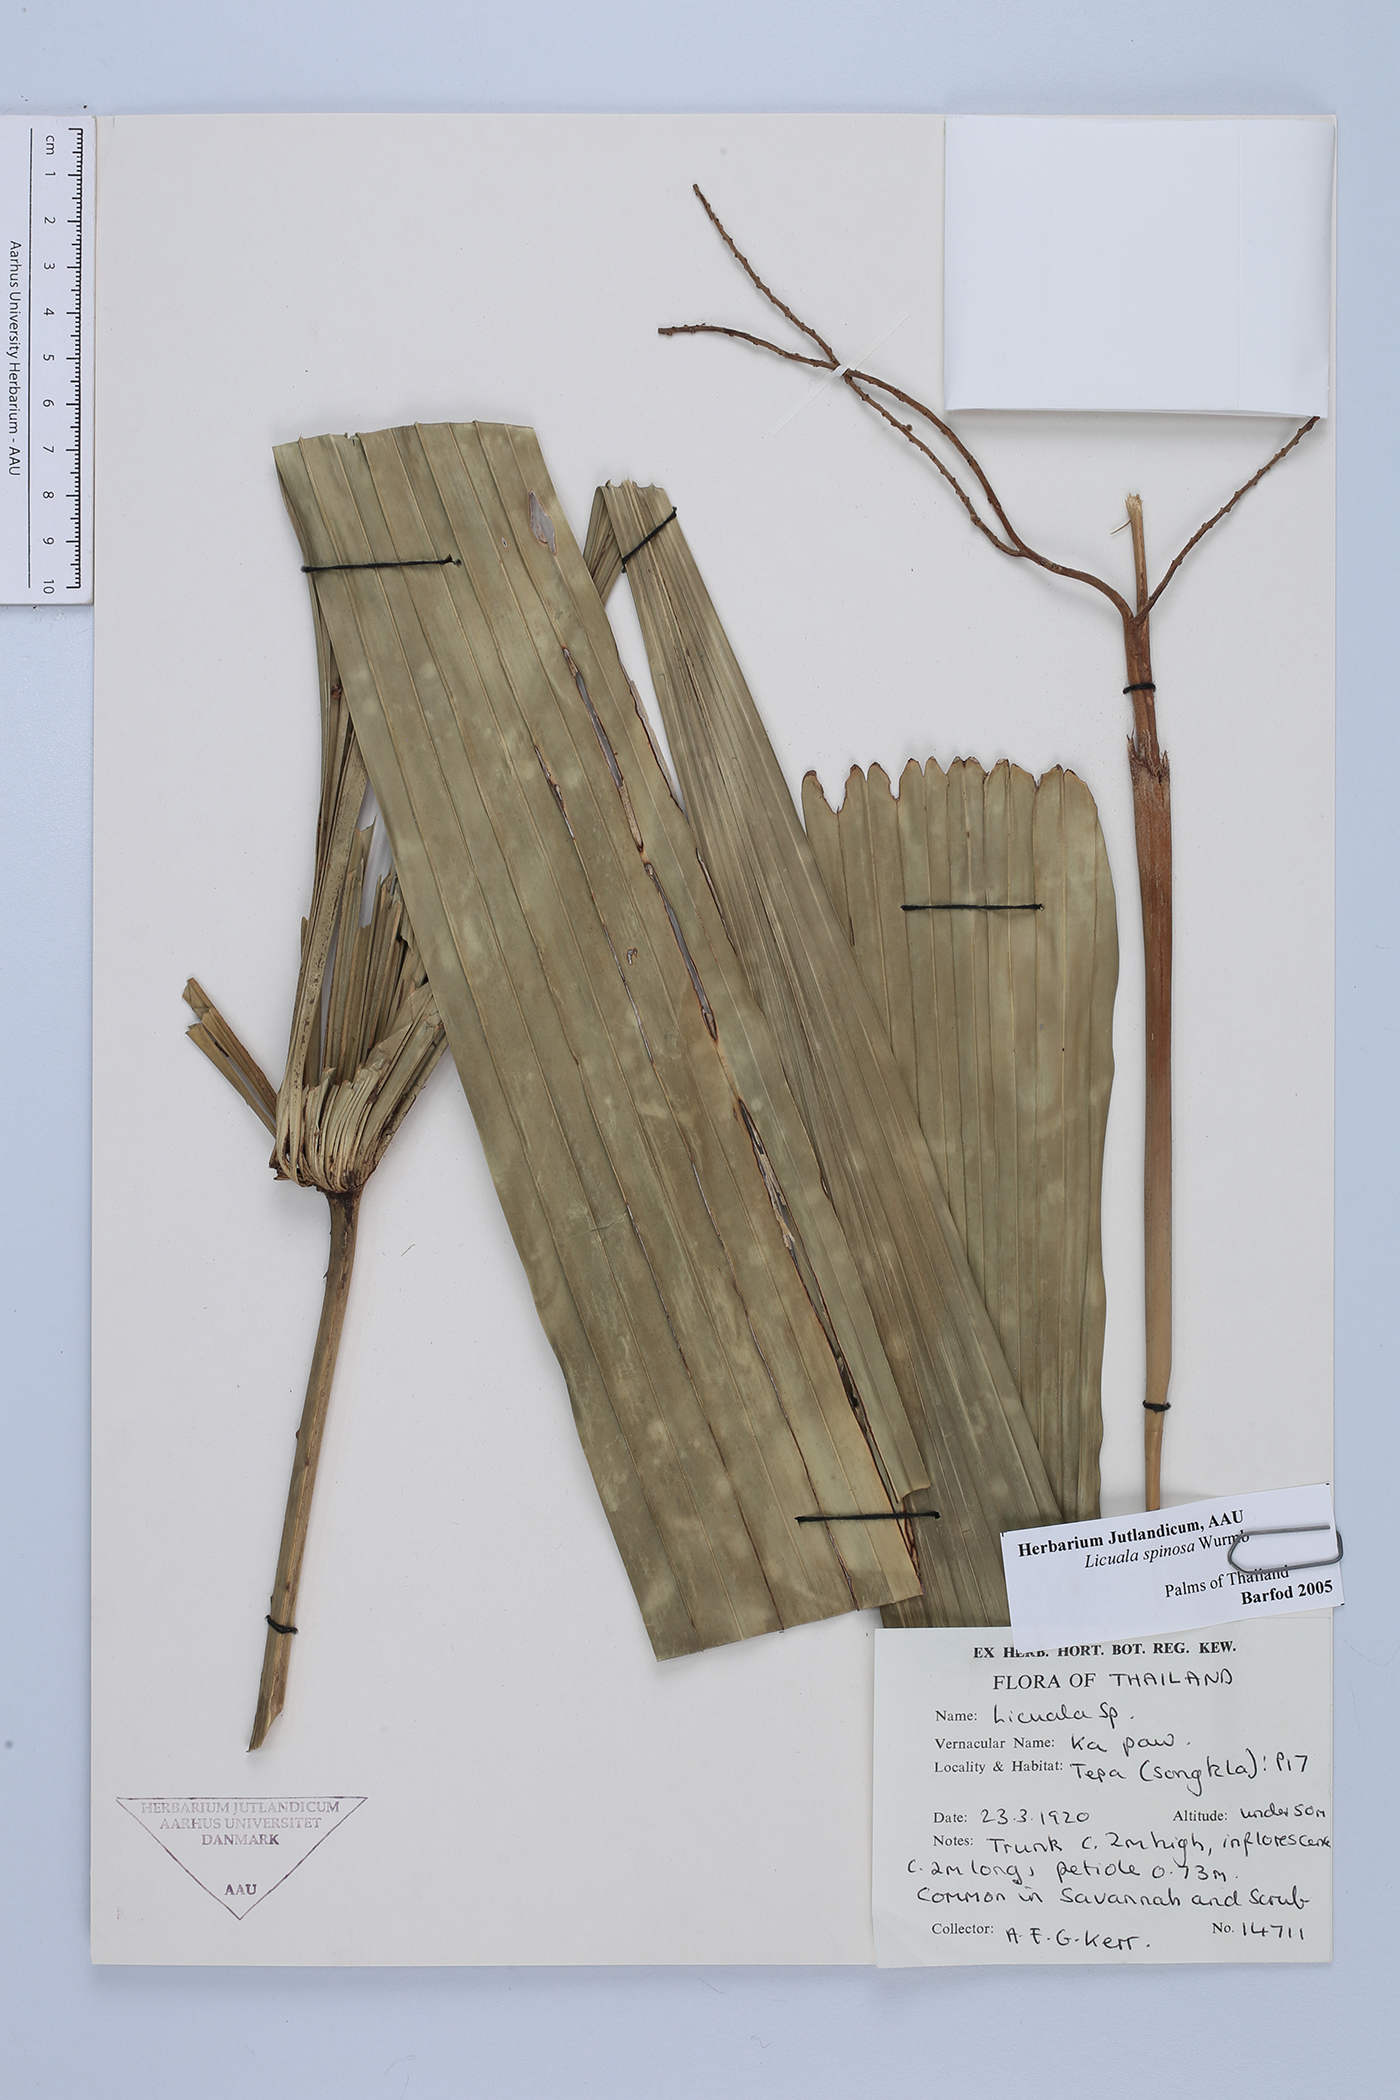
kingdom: Plantae
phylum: Tracheophyta
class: Liliopsida
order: Arecales
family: Arecaceae
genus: Licuala
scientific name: Licuala spinosa
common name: Mangrove fan palm
